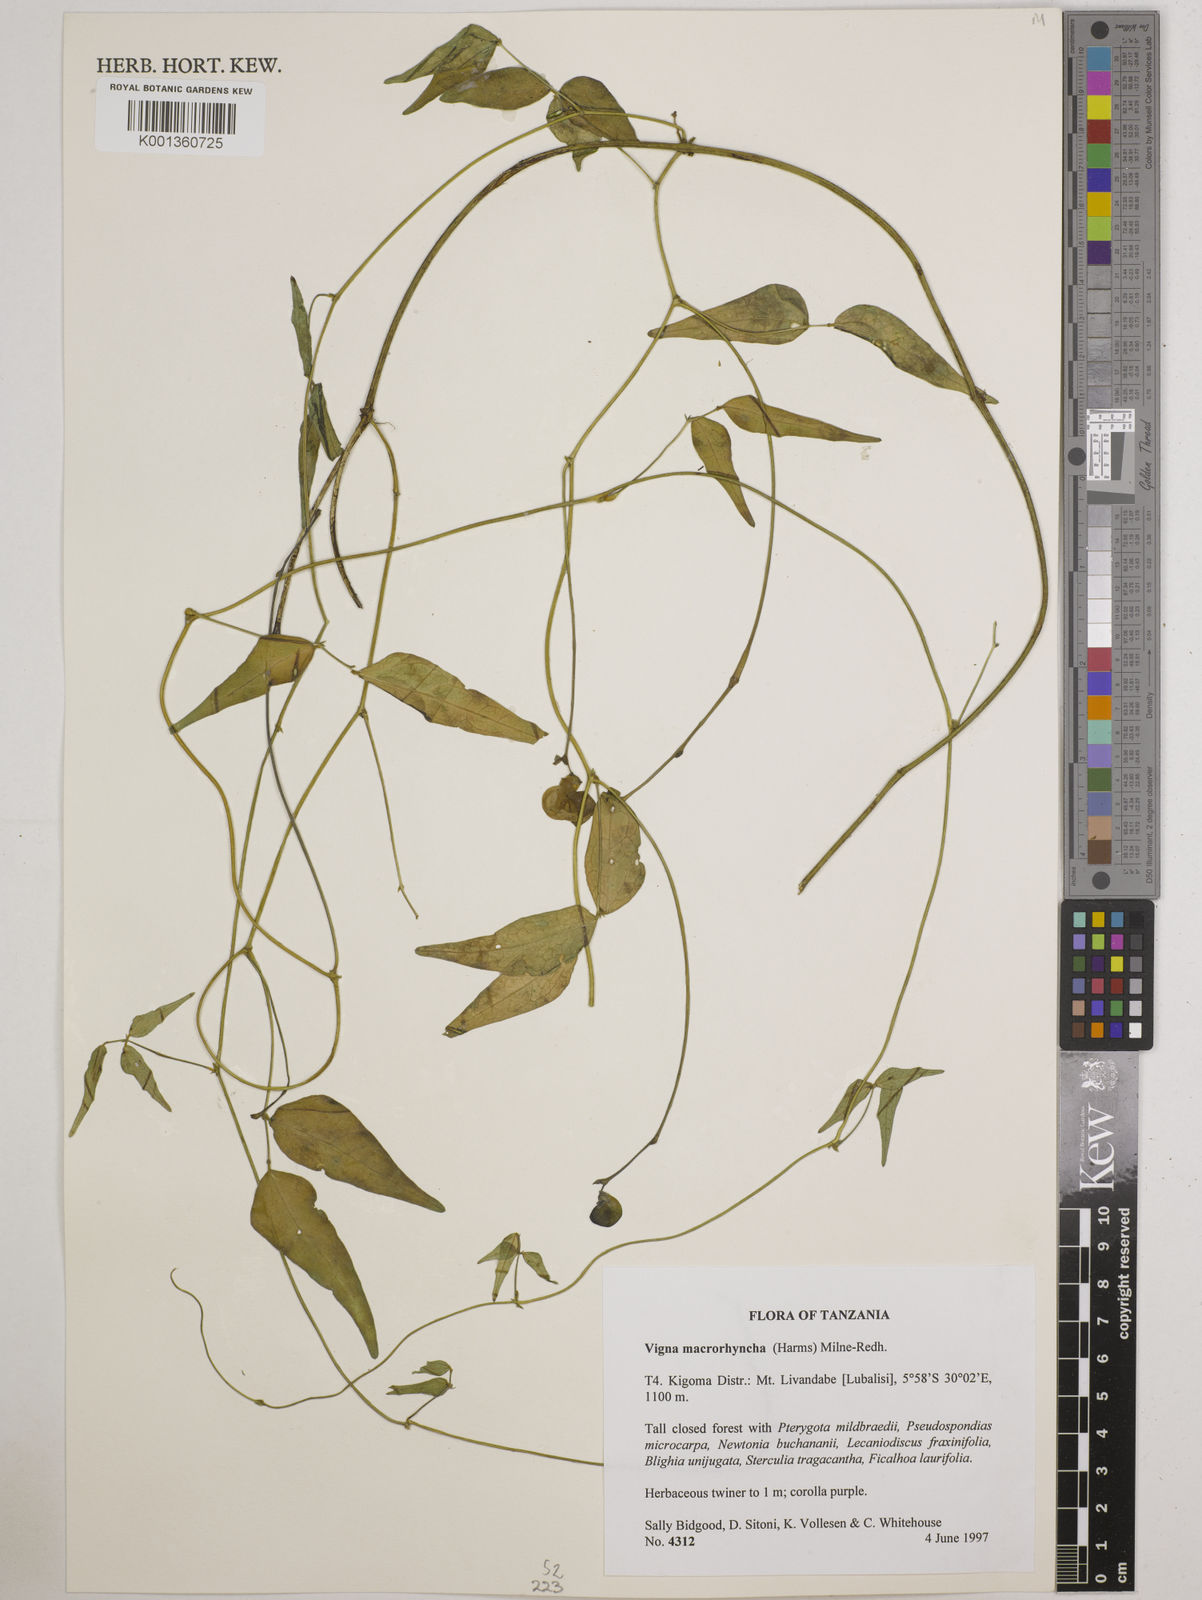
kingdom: Plantae
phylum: Tracheophyta
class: Magnoliopsida
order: Fabales
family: Fabaceae
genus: Wajira
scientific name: Wajira grahamiana
